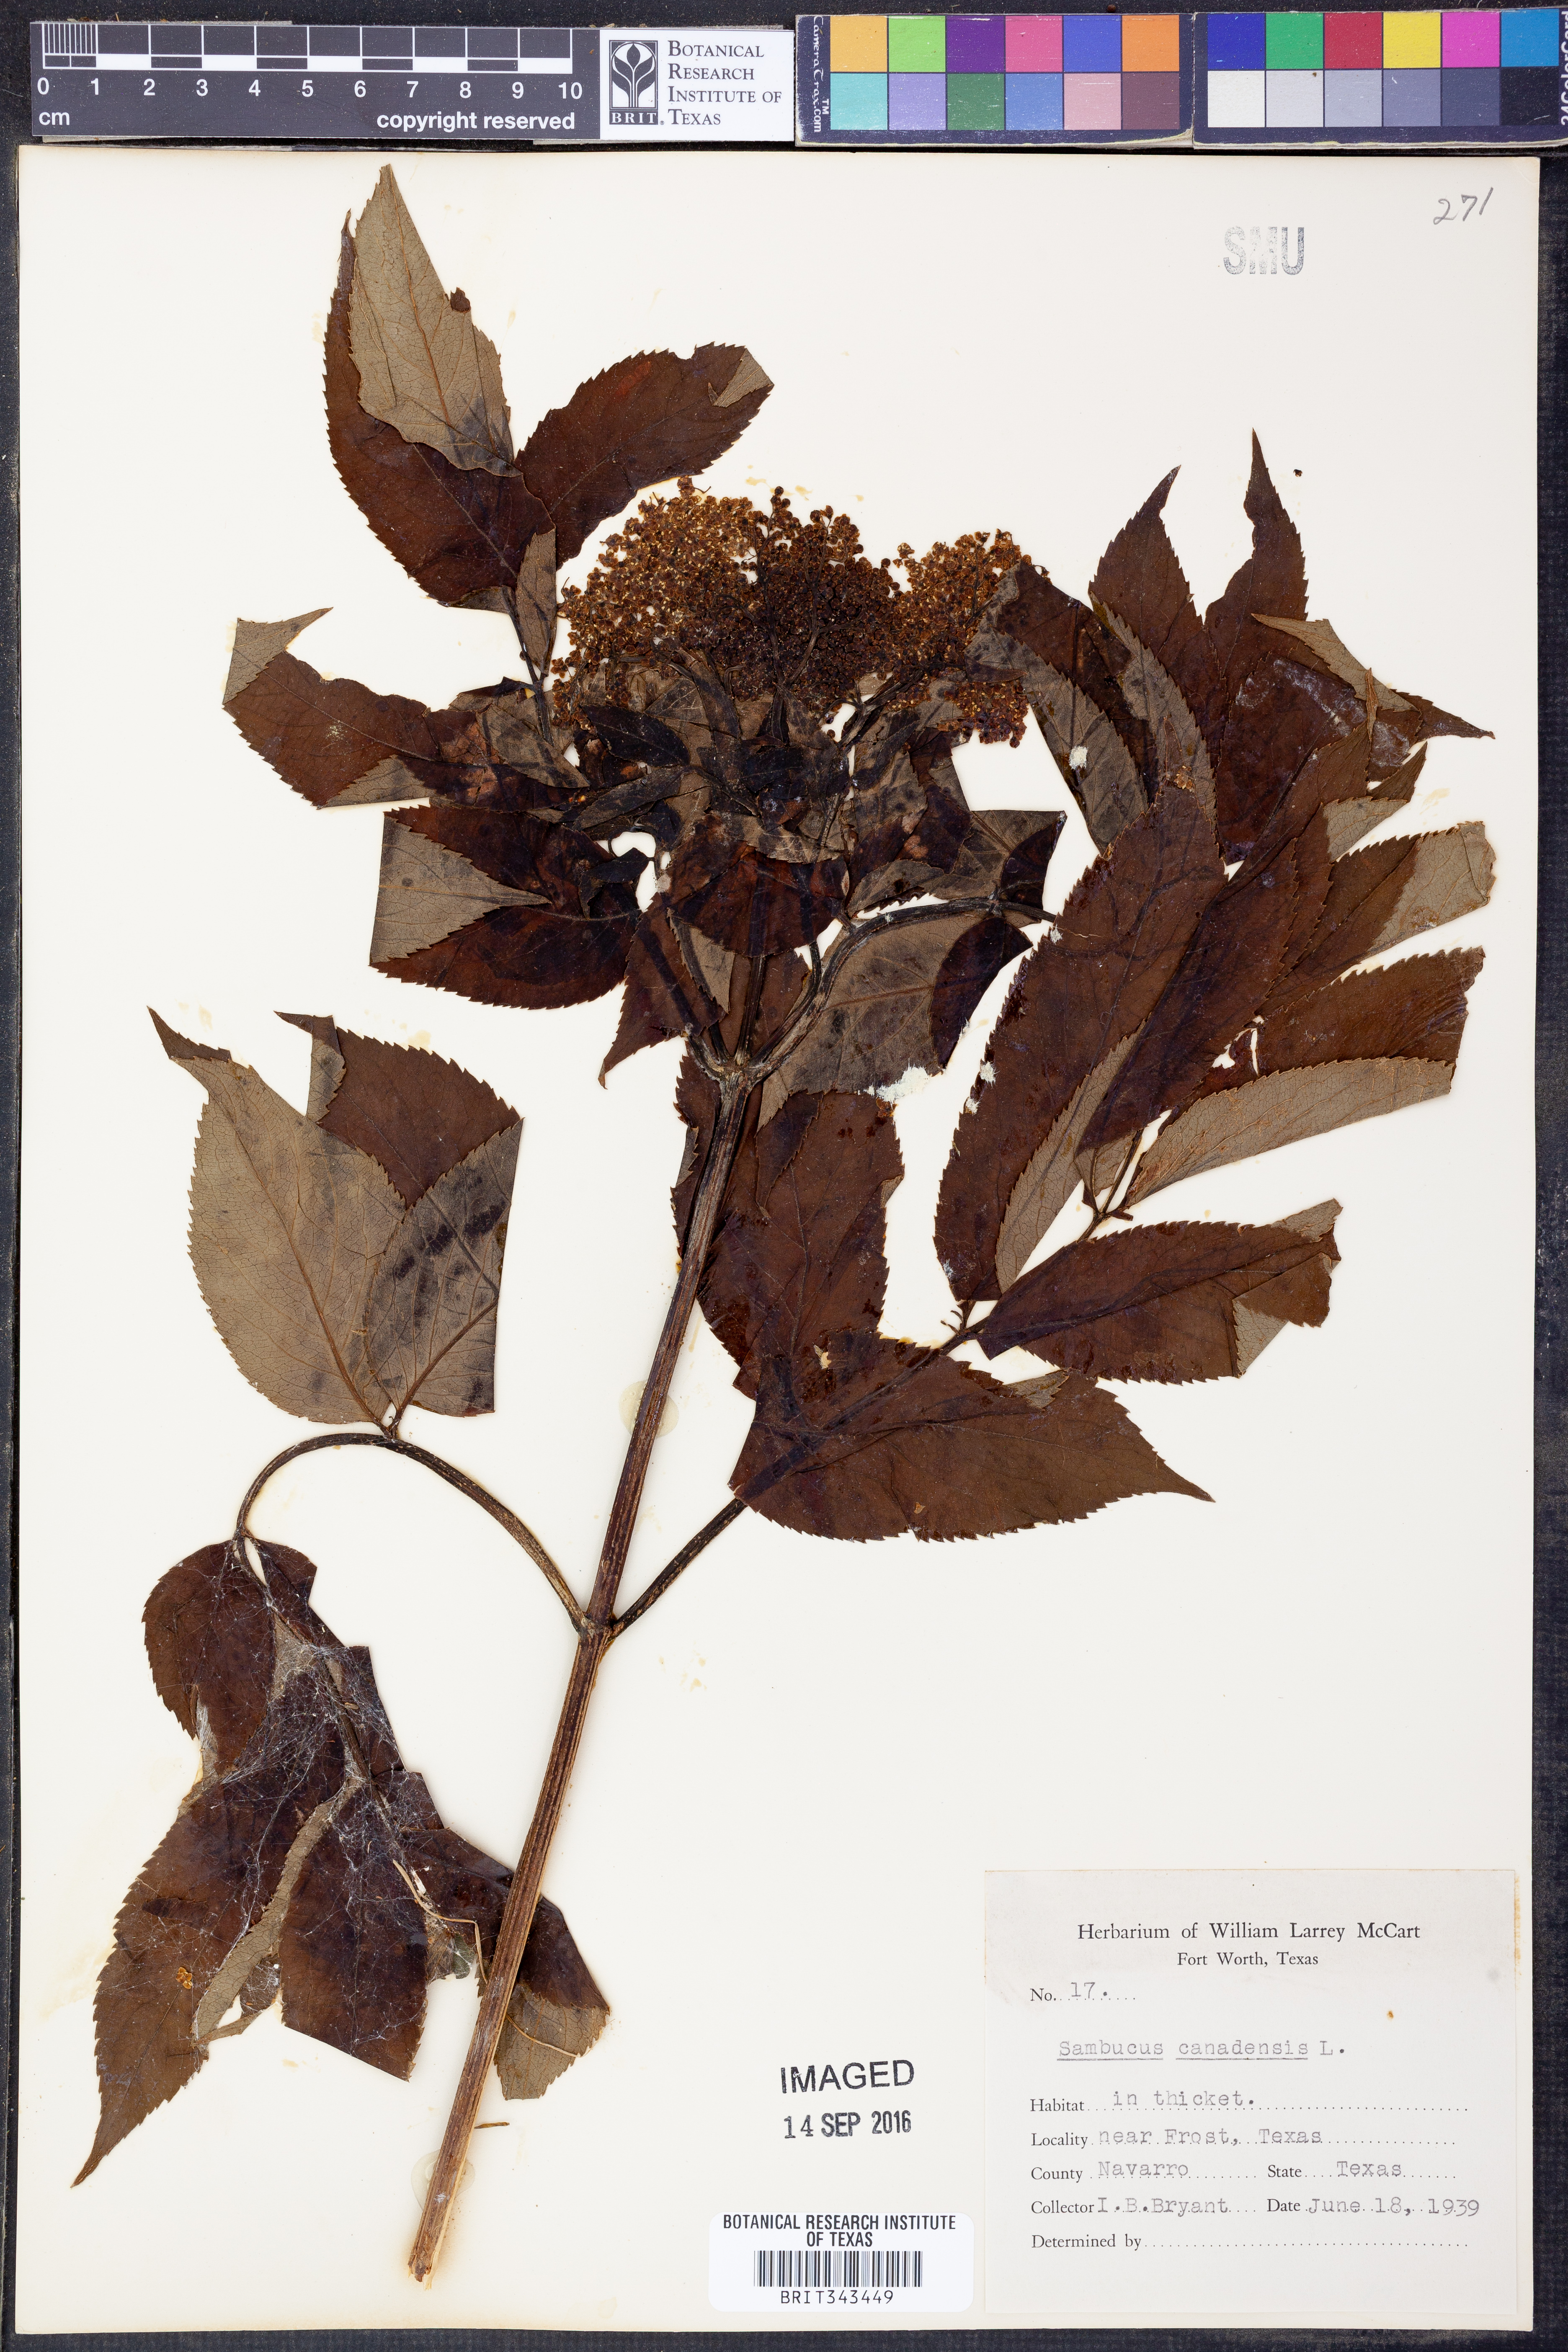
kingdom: Plantae
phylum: Tracheophyta
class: Magnoliopsida
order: Dipsacales
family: Viburnaceae
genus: Sambucus
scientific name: Sambucus canadensis
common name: American elder
